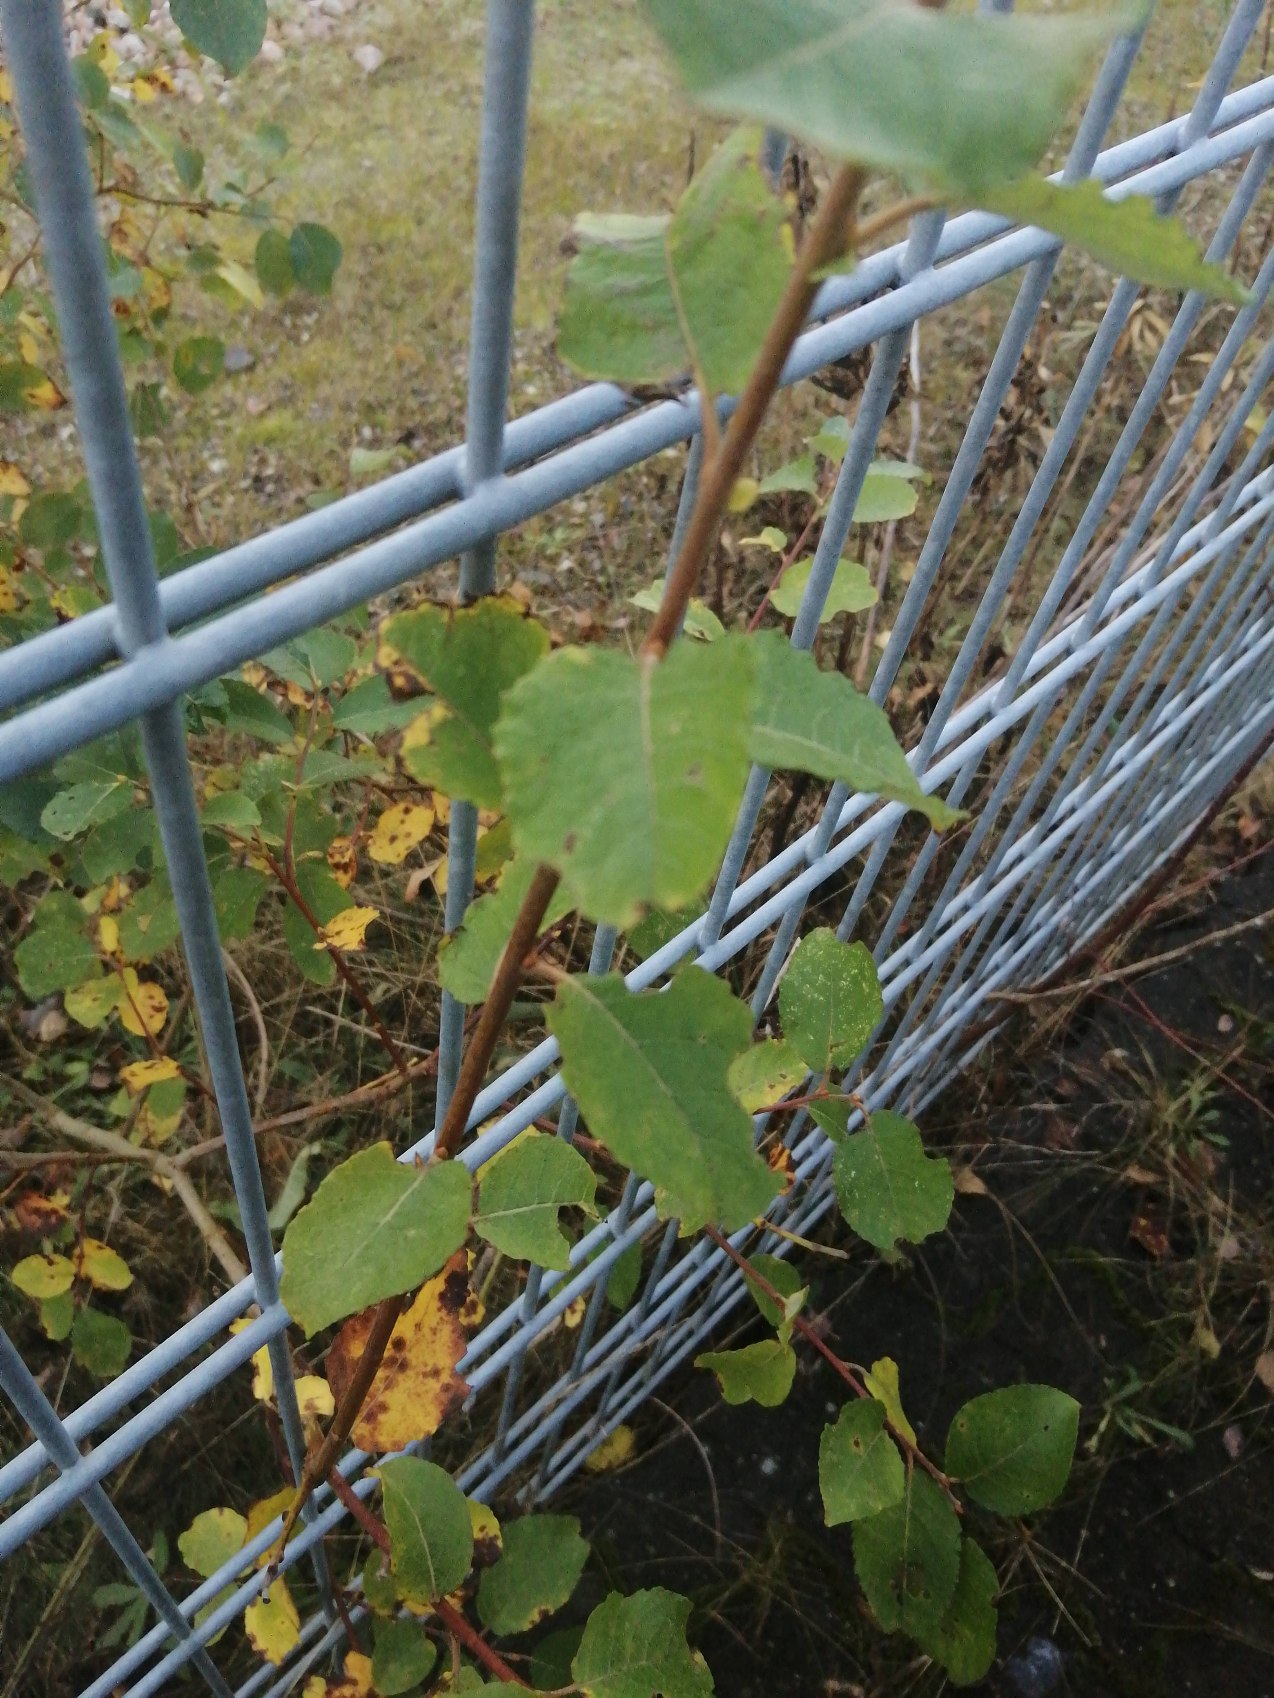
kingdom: Plantae
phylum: Tracheophyta
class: Magnoliopsida
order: Malpighiales
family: Salicaceae
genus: Salix
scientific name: Salix caprea
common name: Selje-pil
